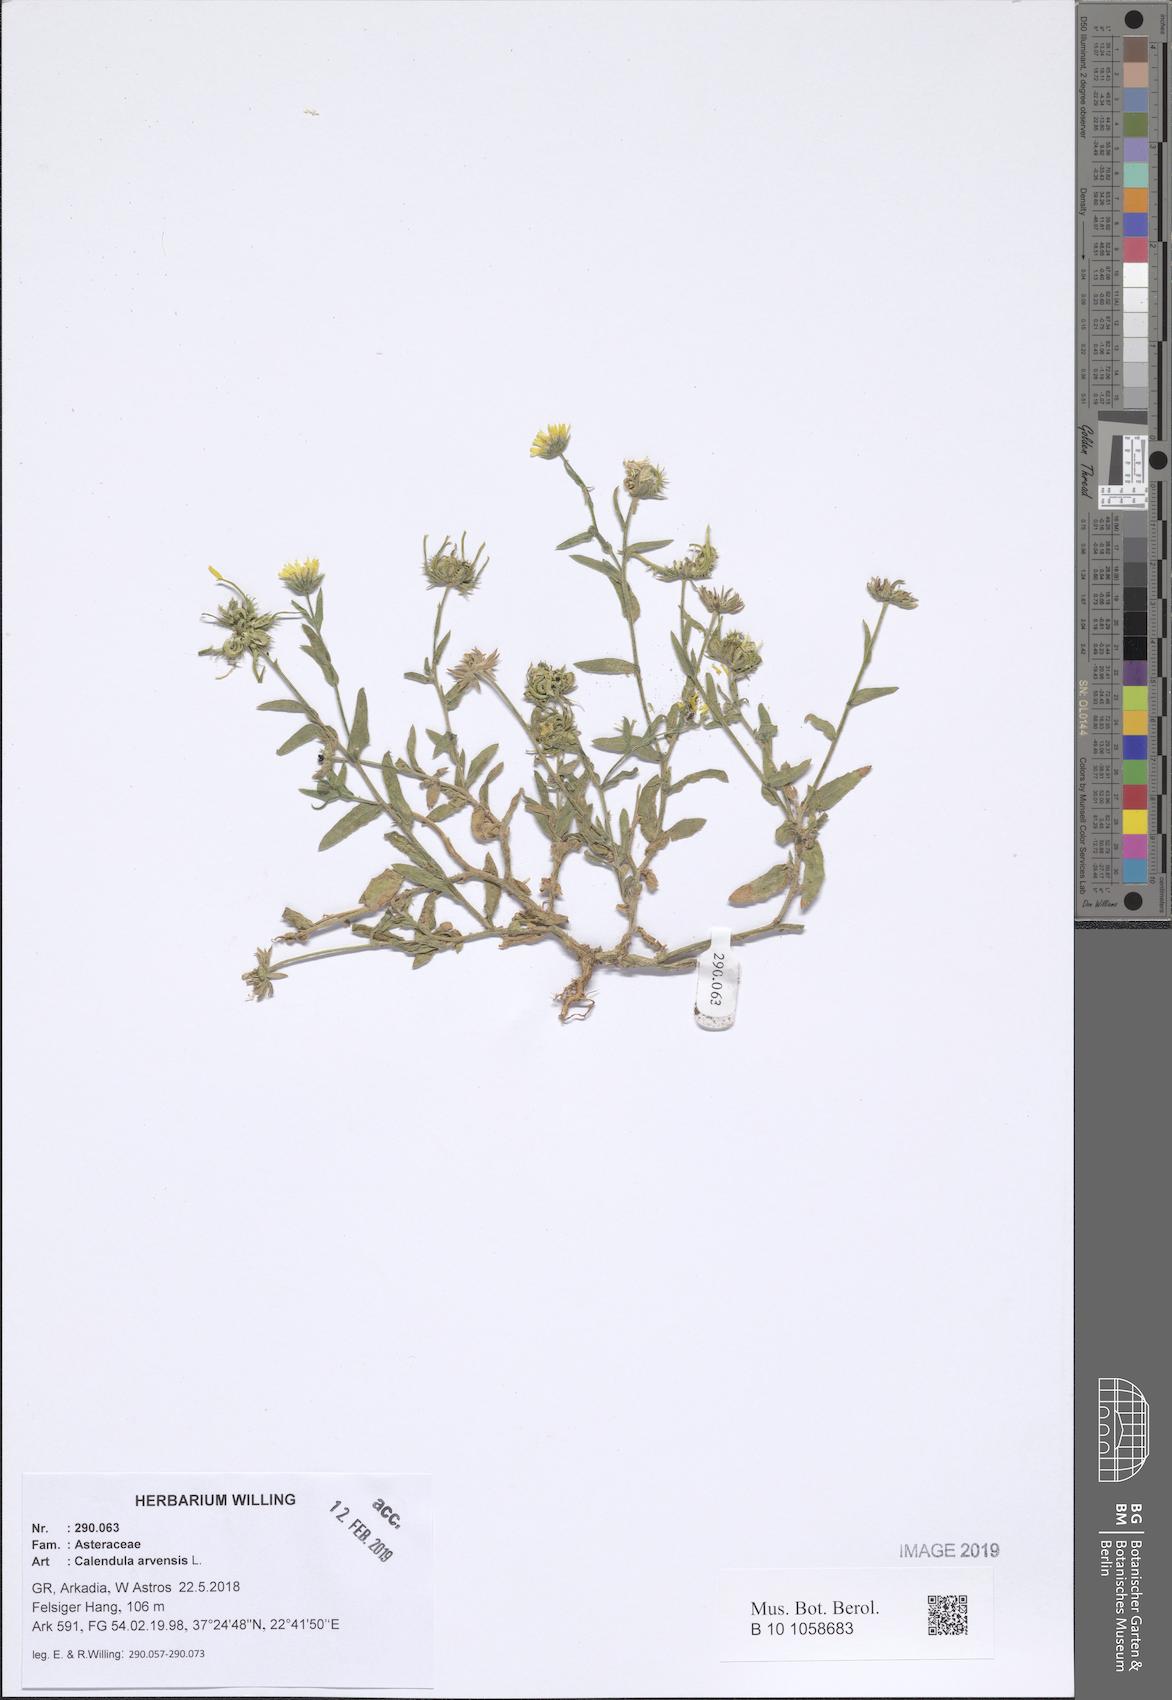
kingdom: Plantae
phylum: Tracheophyta
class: Magnoliopsida
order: Asterales
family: Asteraceae
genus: Calendula
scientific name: Calendula arvensis
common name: Field marigold
